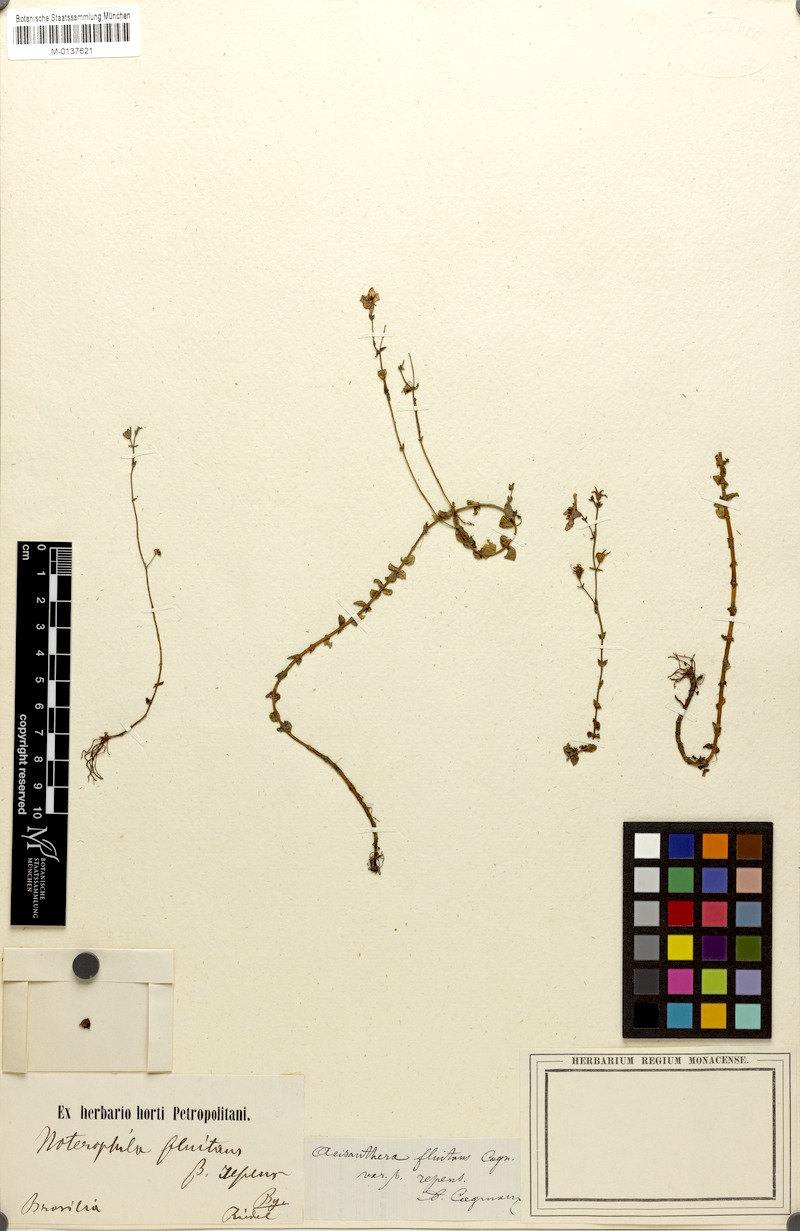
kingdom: Plantae
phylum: Tracheophyta
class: Magnoliopsida
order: Myrtales
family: Melastomataceae
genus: Noterophila
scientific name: Noterophila limnobios
